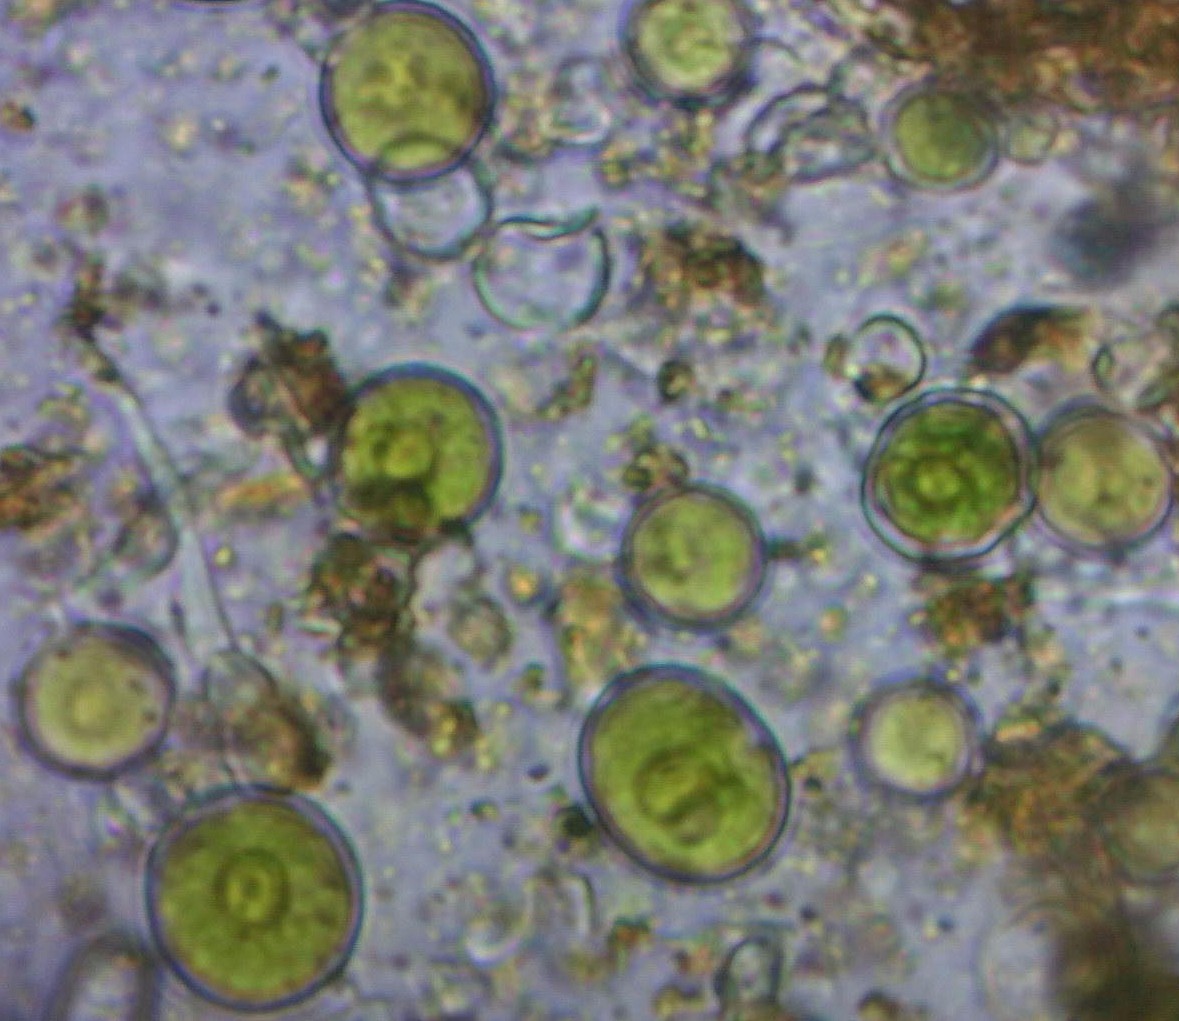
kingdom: Fungi
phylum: Ascomycota
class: Lecanoromycetes
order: Teloschistales
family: Teloschistaceae
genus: Xanthoria
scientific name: Xanthoria elegans
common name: fjeld-væggelav
